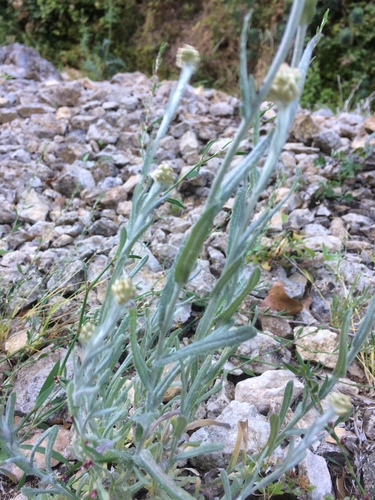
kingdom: Plantae
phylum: Tracheophyta
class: Magnoliopsida
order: Asterales
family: Asteraceae
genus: Helichrysum
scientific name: Helichrysum luteoalbum
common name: Daisy
